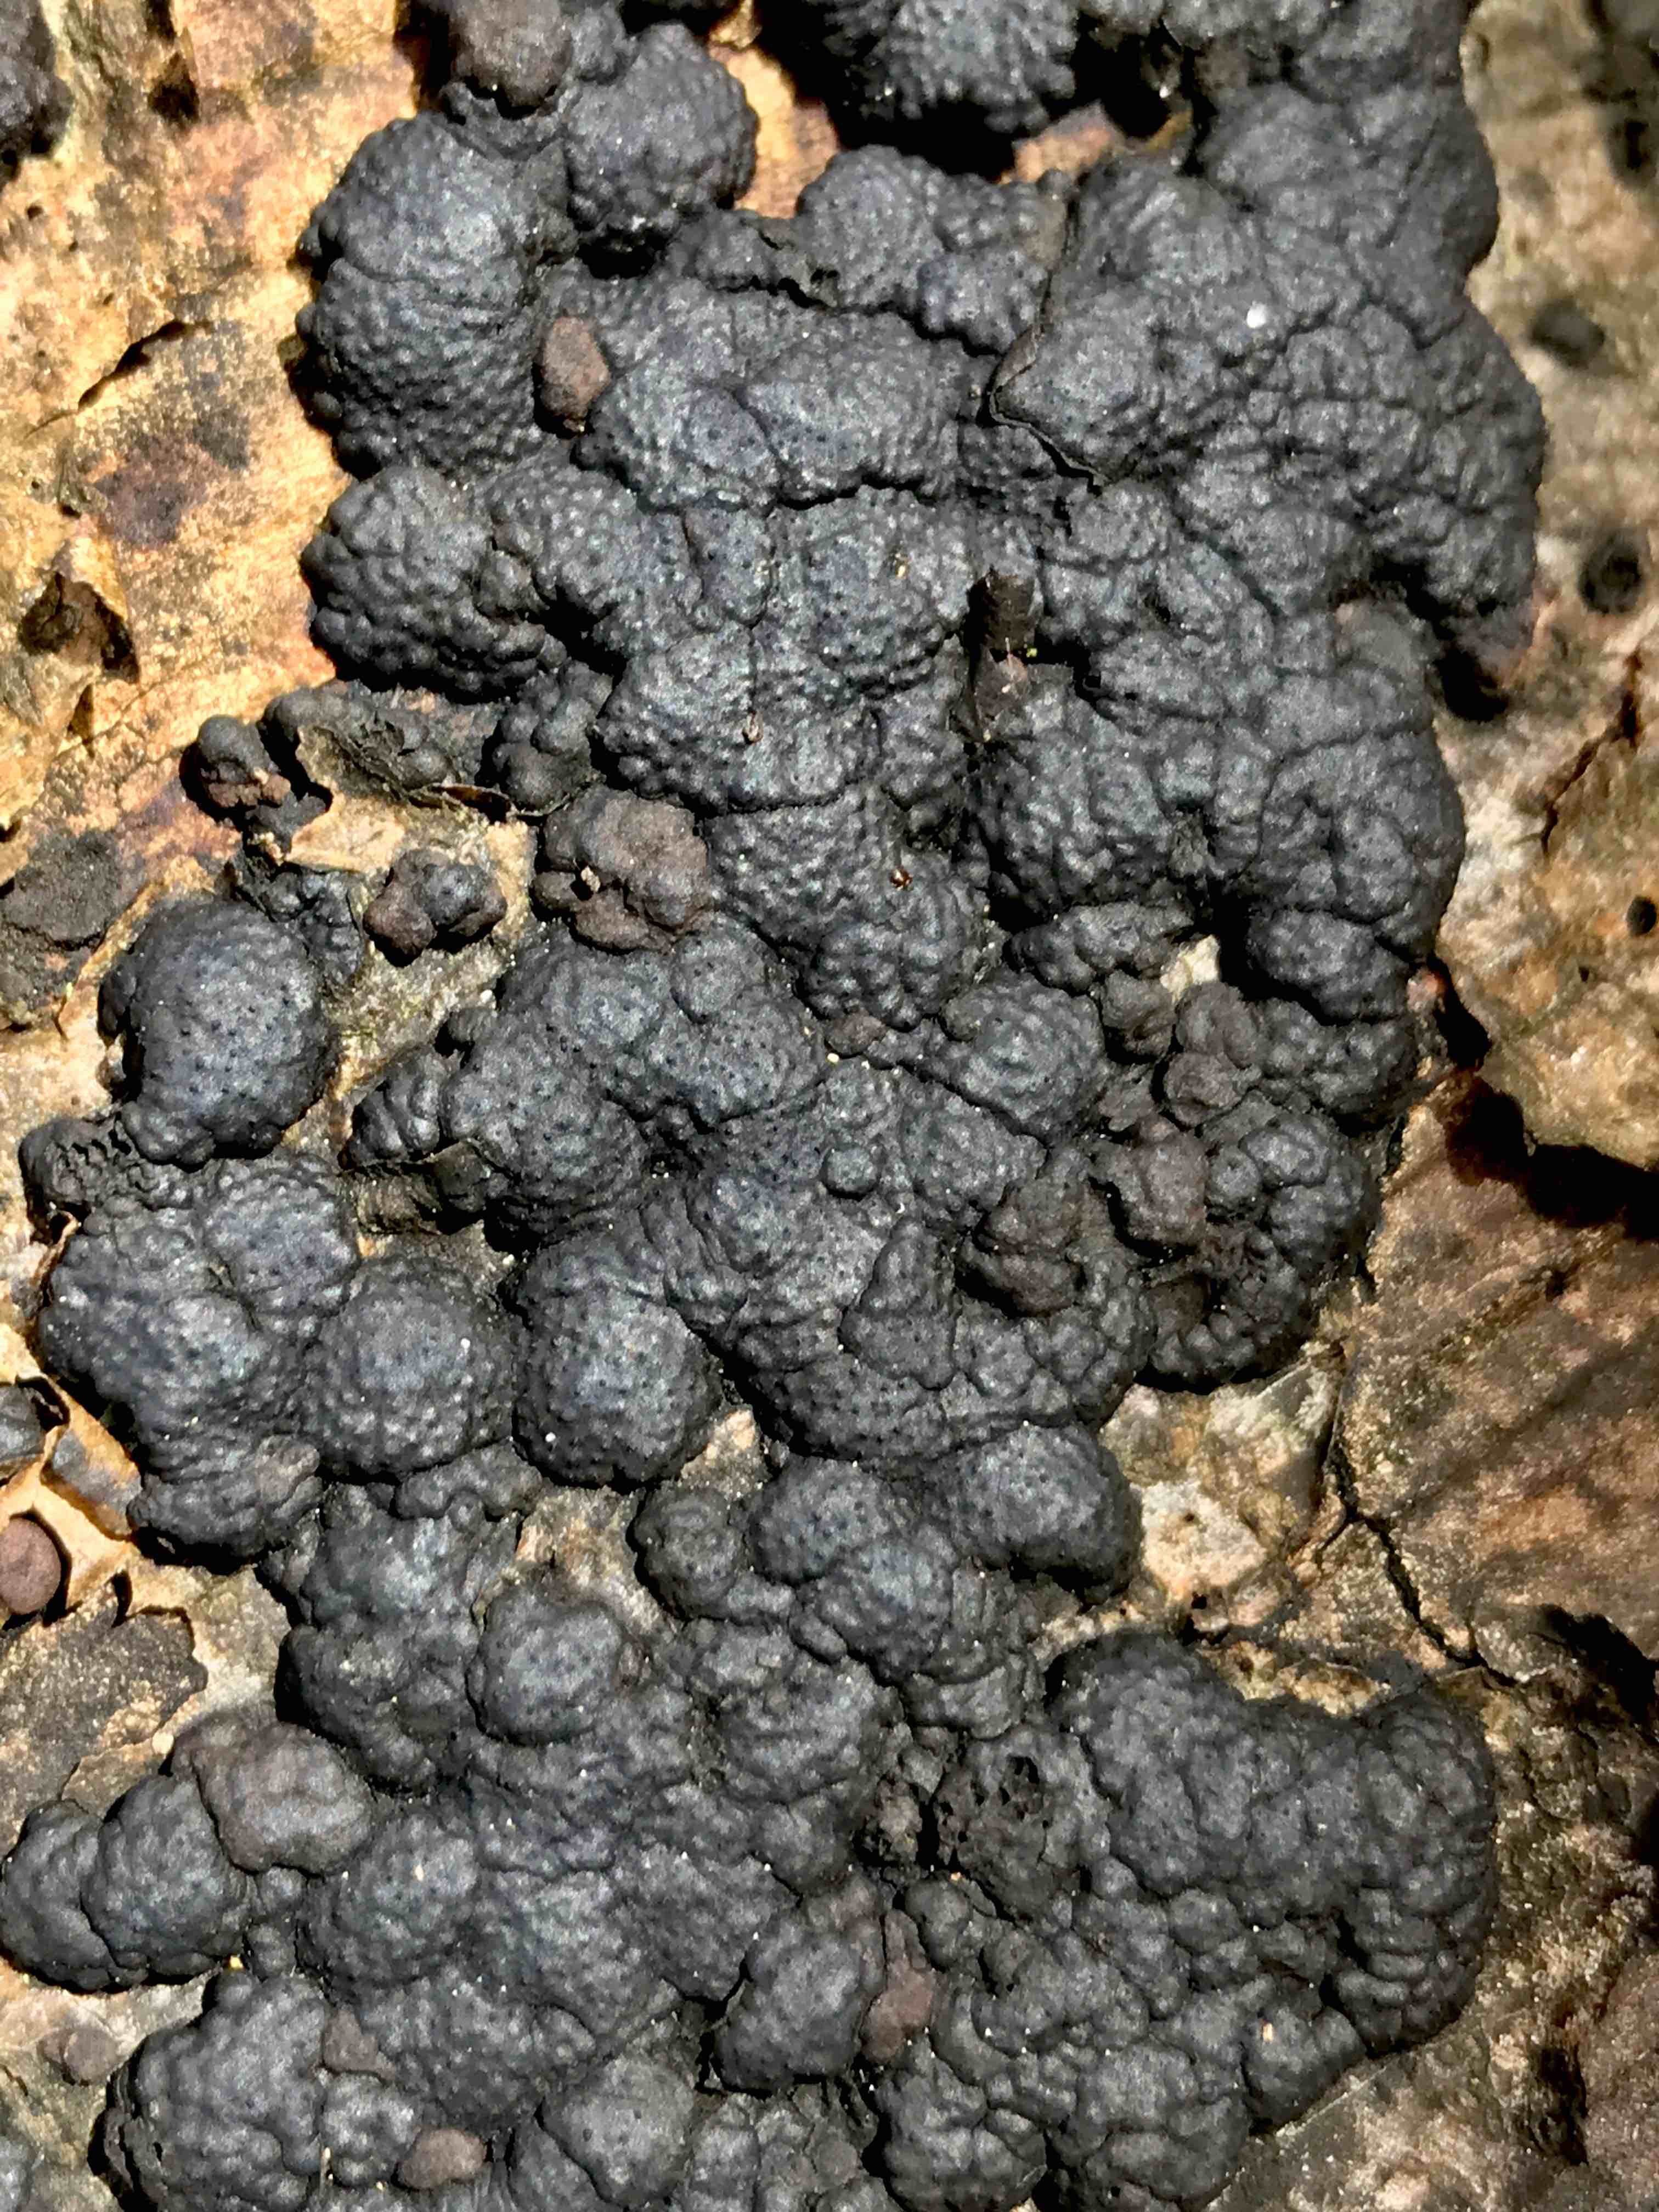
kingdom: Fungi
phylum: Ascomycota
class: Sordariomycetes
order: Xylariales
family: Hypoxylaceae
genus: Jackrogersella
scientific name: Jackrogersella cohaerens
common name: sammenflydende kulbær
